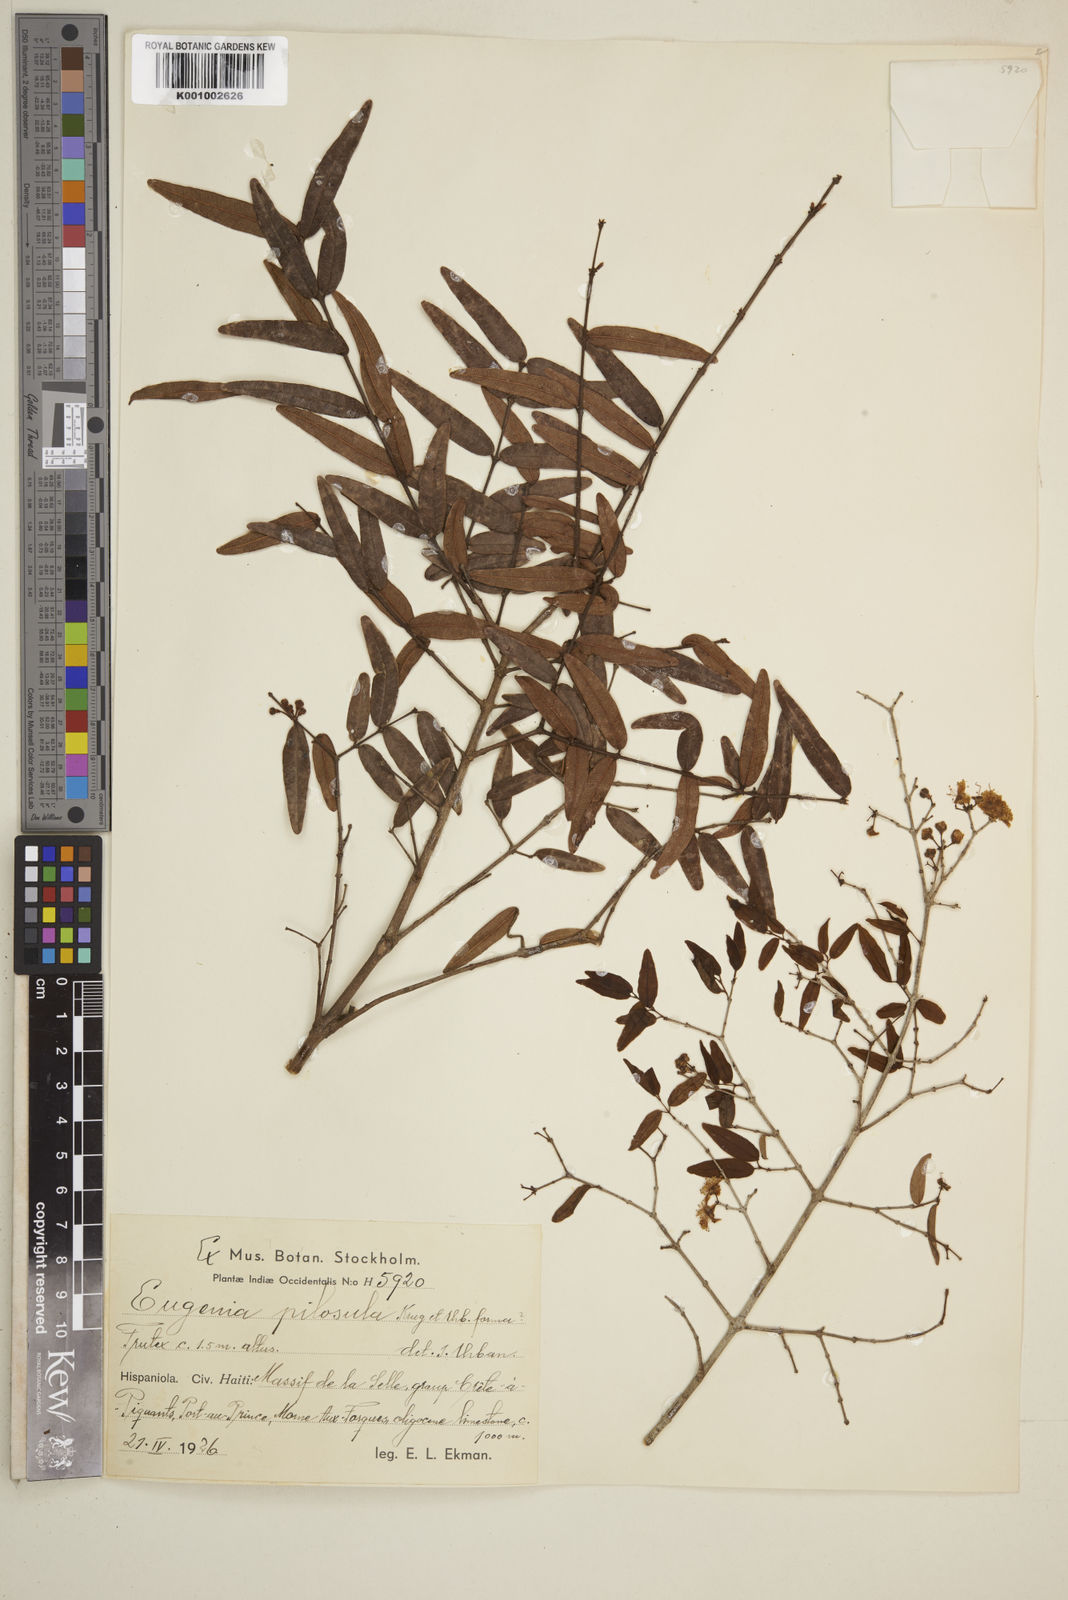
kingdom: Plantae
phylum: Tracheophyta
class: Magnoliopsida
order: Myrtales
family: Myrtaceae
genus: Eugenia
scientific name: Eugenia pilosula
